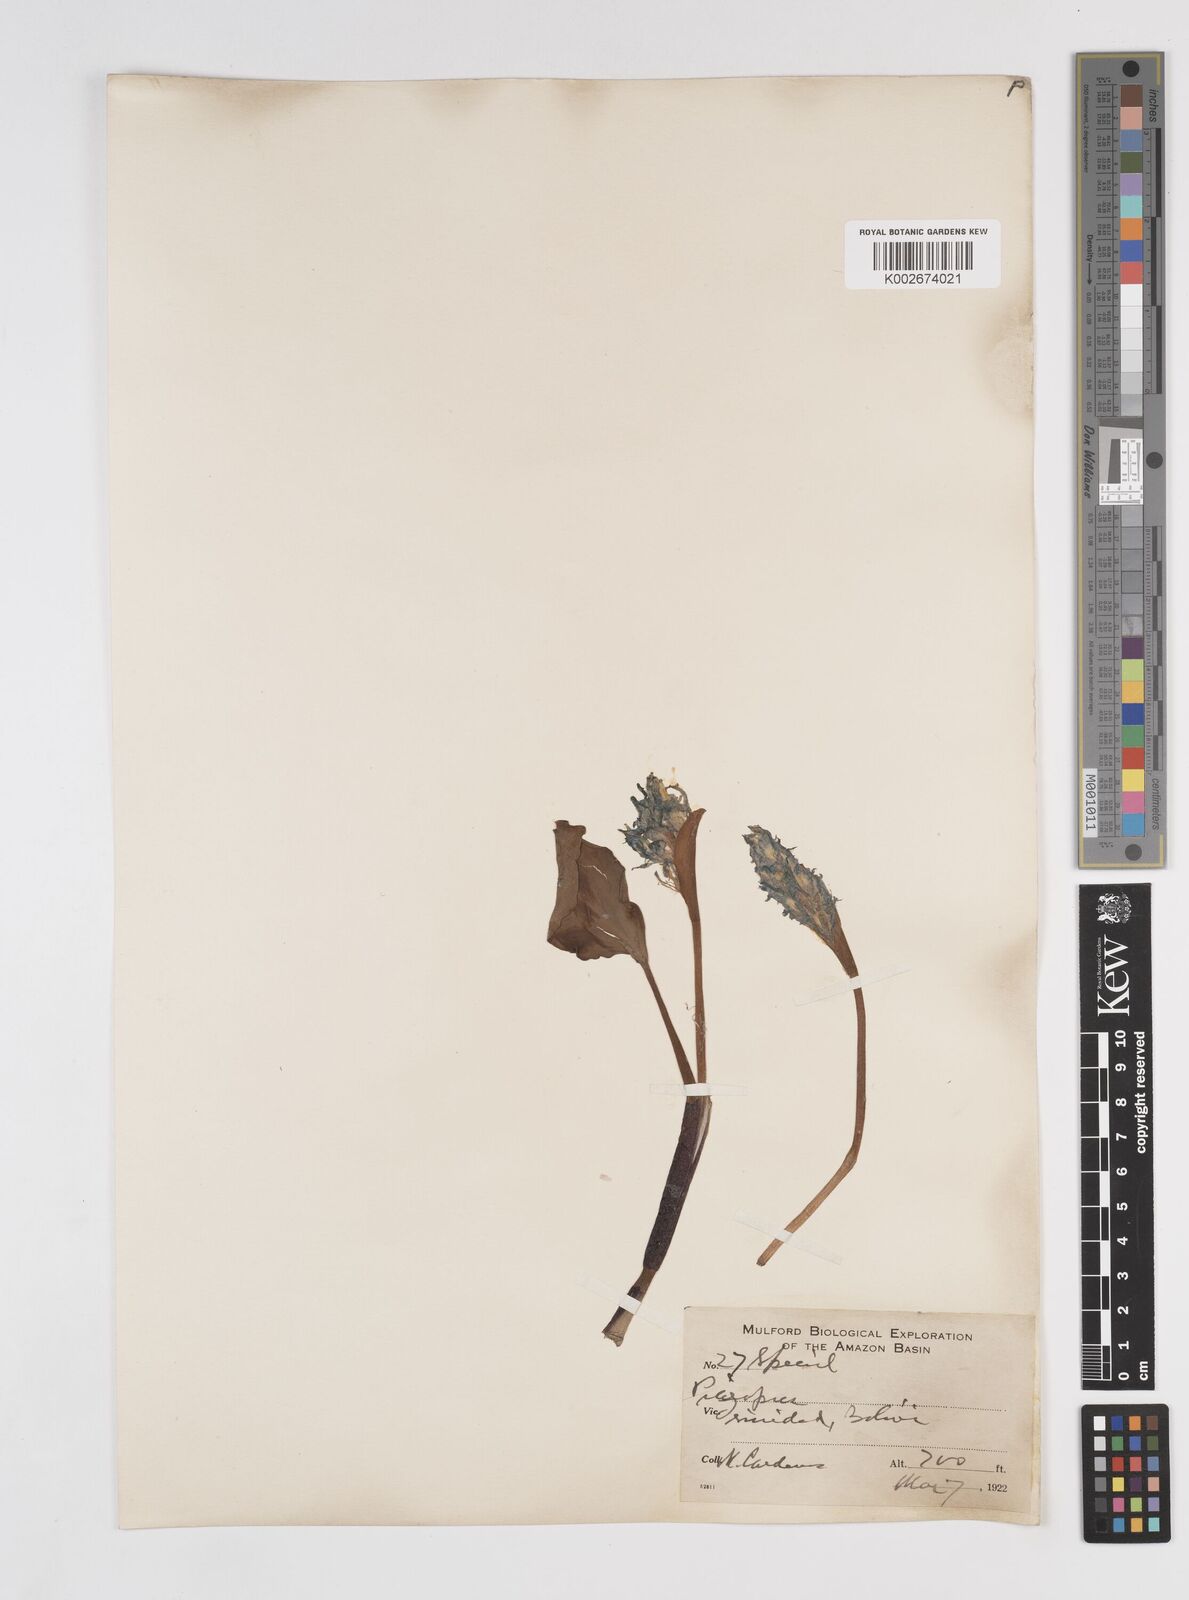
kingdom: Plantae
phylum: Tracheophyta
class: Liliopsida
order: Commelinales
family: Pontederiaceae
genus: Pontederia
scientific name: Pontederia azurea
